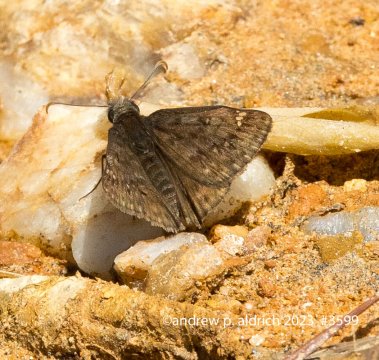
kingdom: Animalia
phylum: Arthropoda
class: Insecta
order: Lepidoptera
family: Hesperiidae
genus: Erynnis
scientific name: Erynnis
